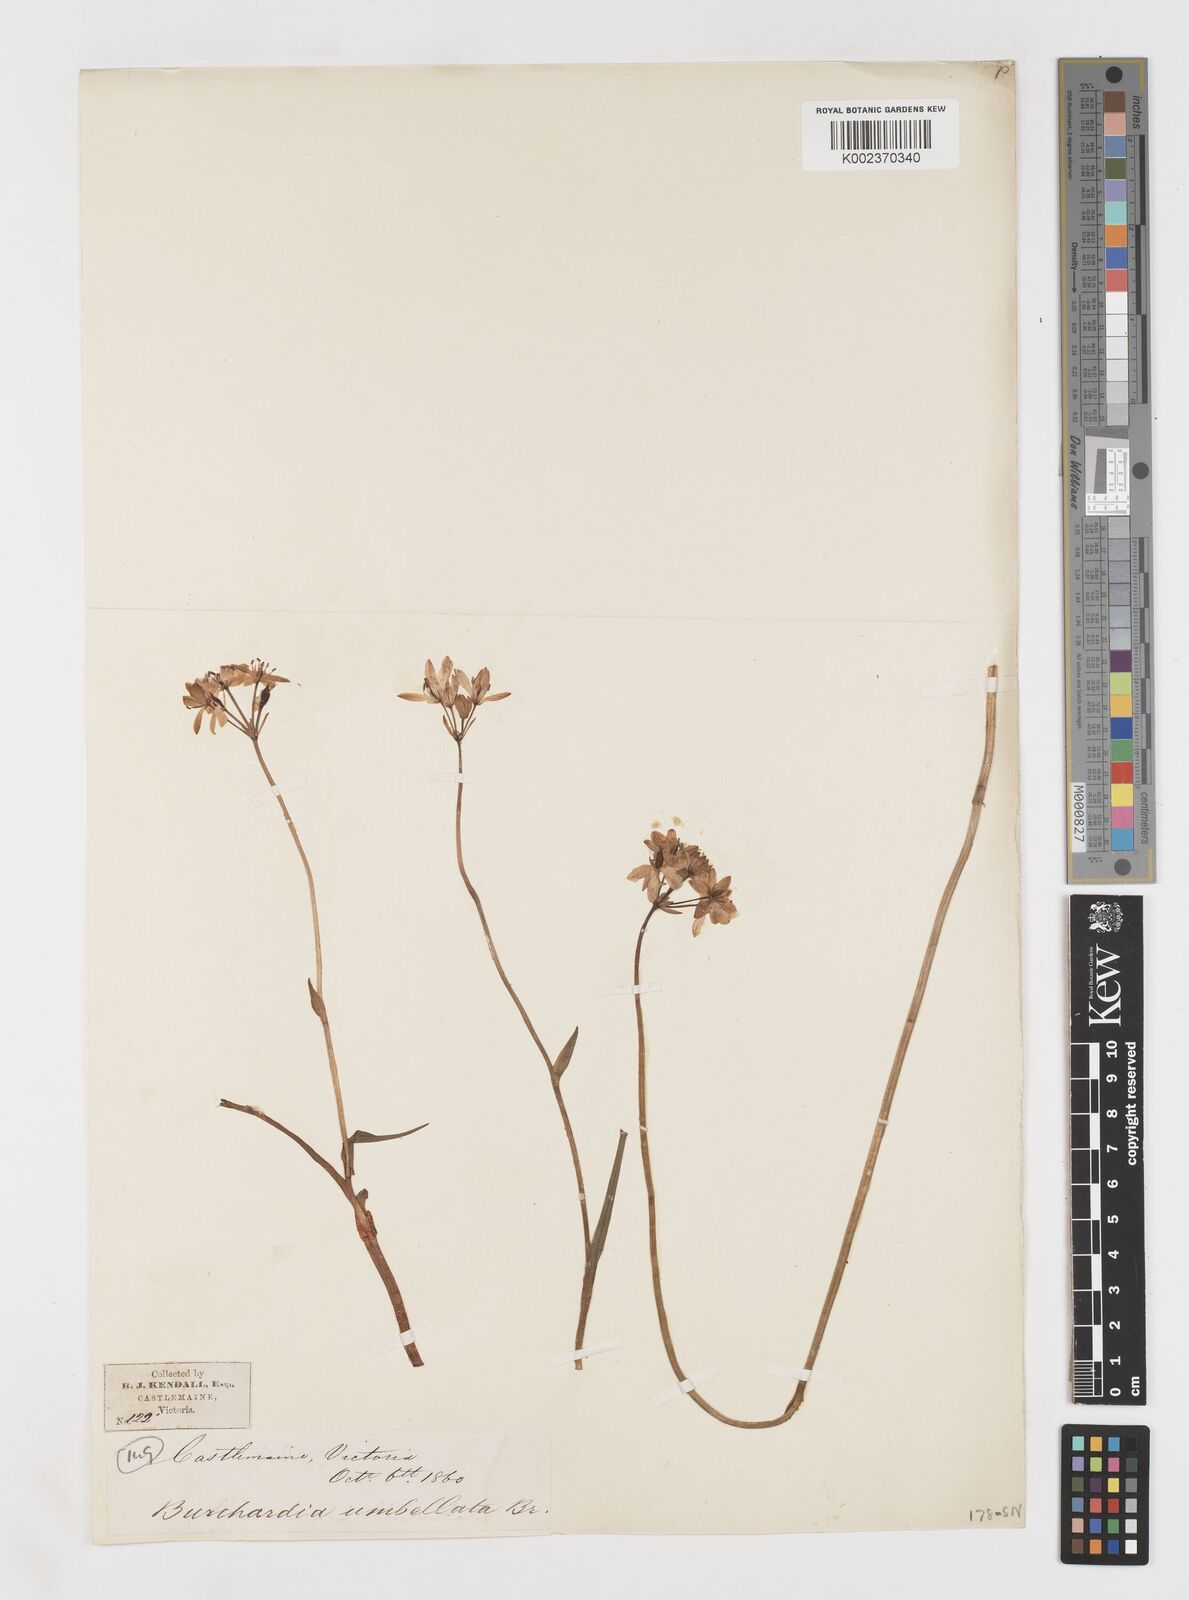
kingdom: Plantae
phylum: Tracheophyta
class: Liliopsida
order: Liliales
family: Colchicaceae
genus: Burchardia
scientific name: Burchardia umbellata
